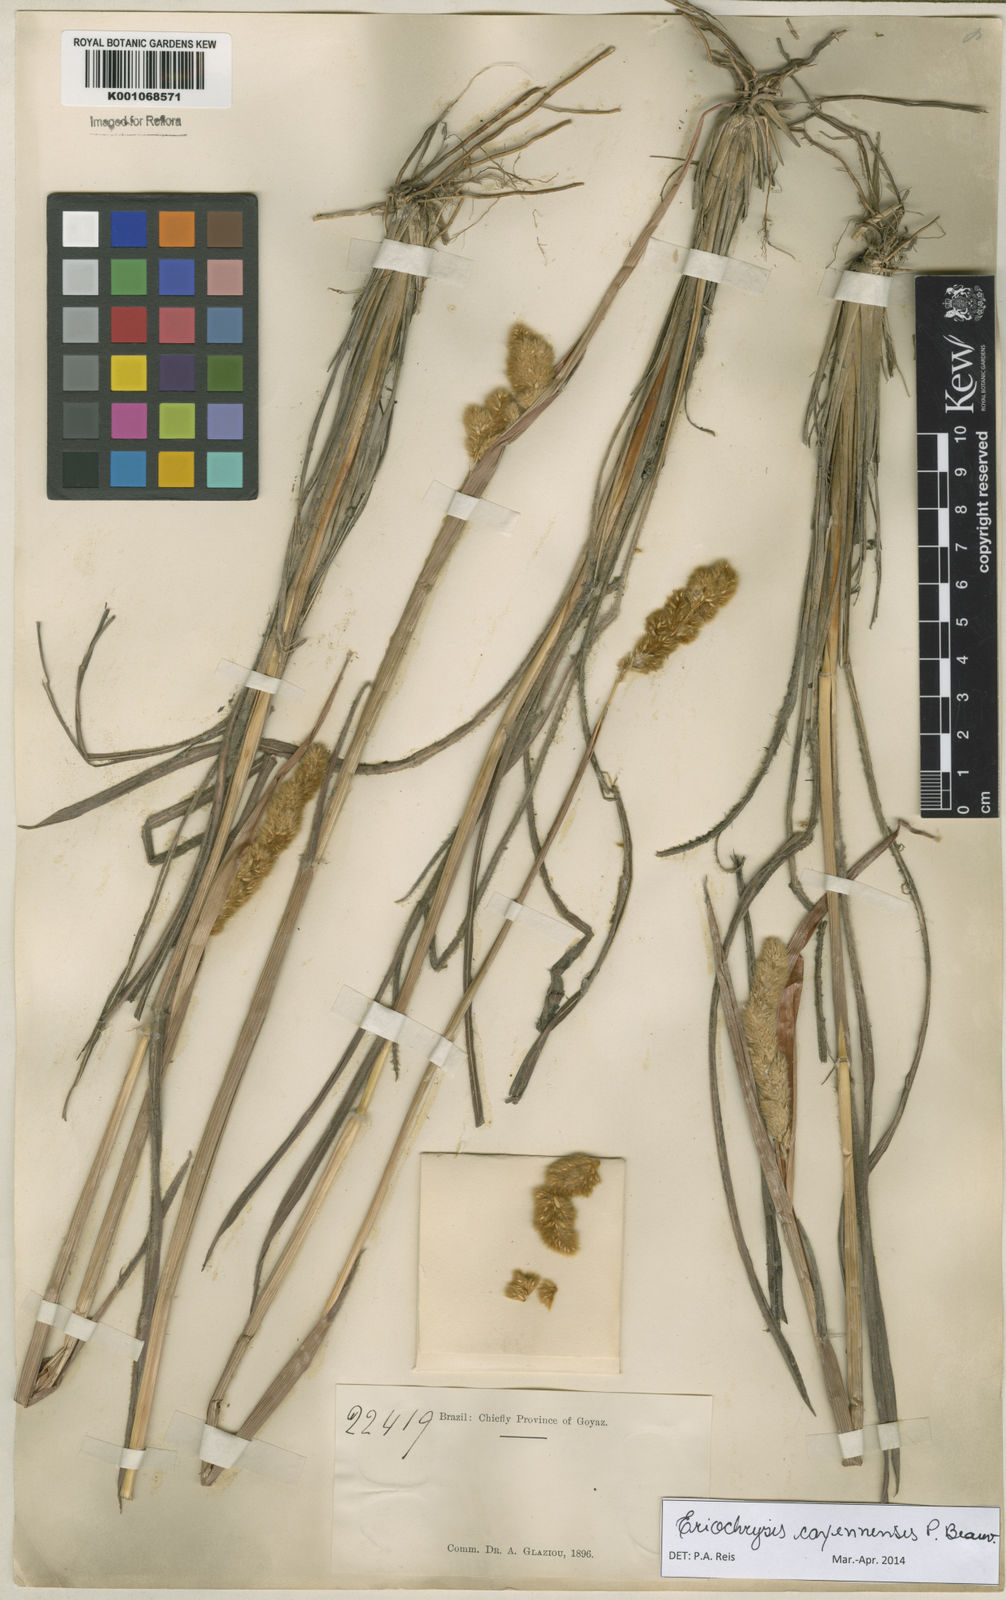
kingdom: Plantae
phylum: Tracheophyta
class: Liliopsida
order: Poales
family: Poaceae
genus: Eriochrysis
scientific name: Eriochrysis cayennensis
